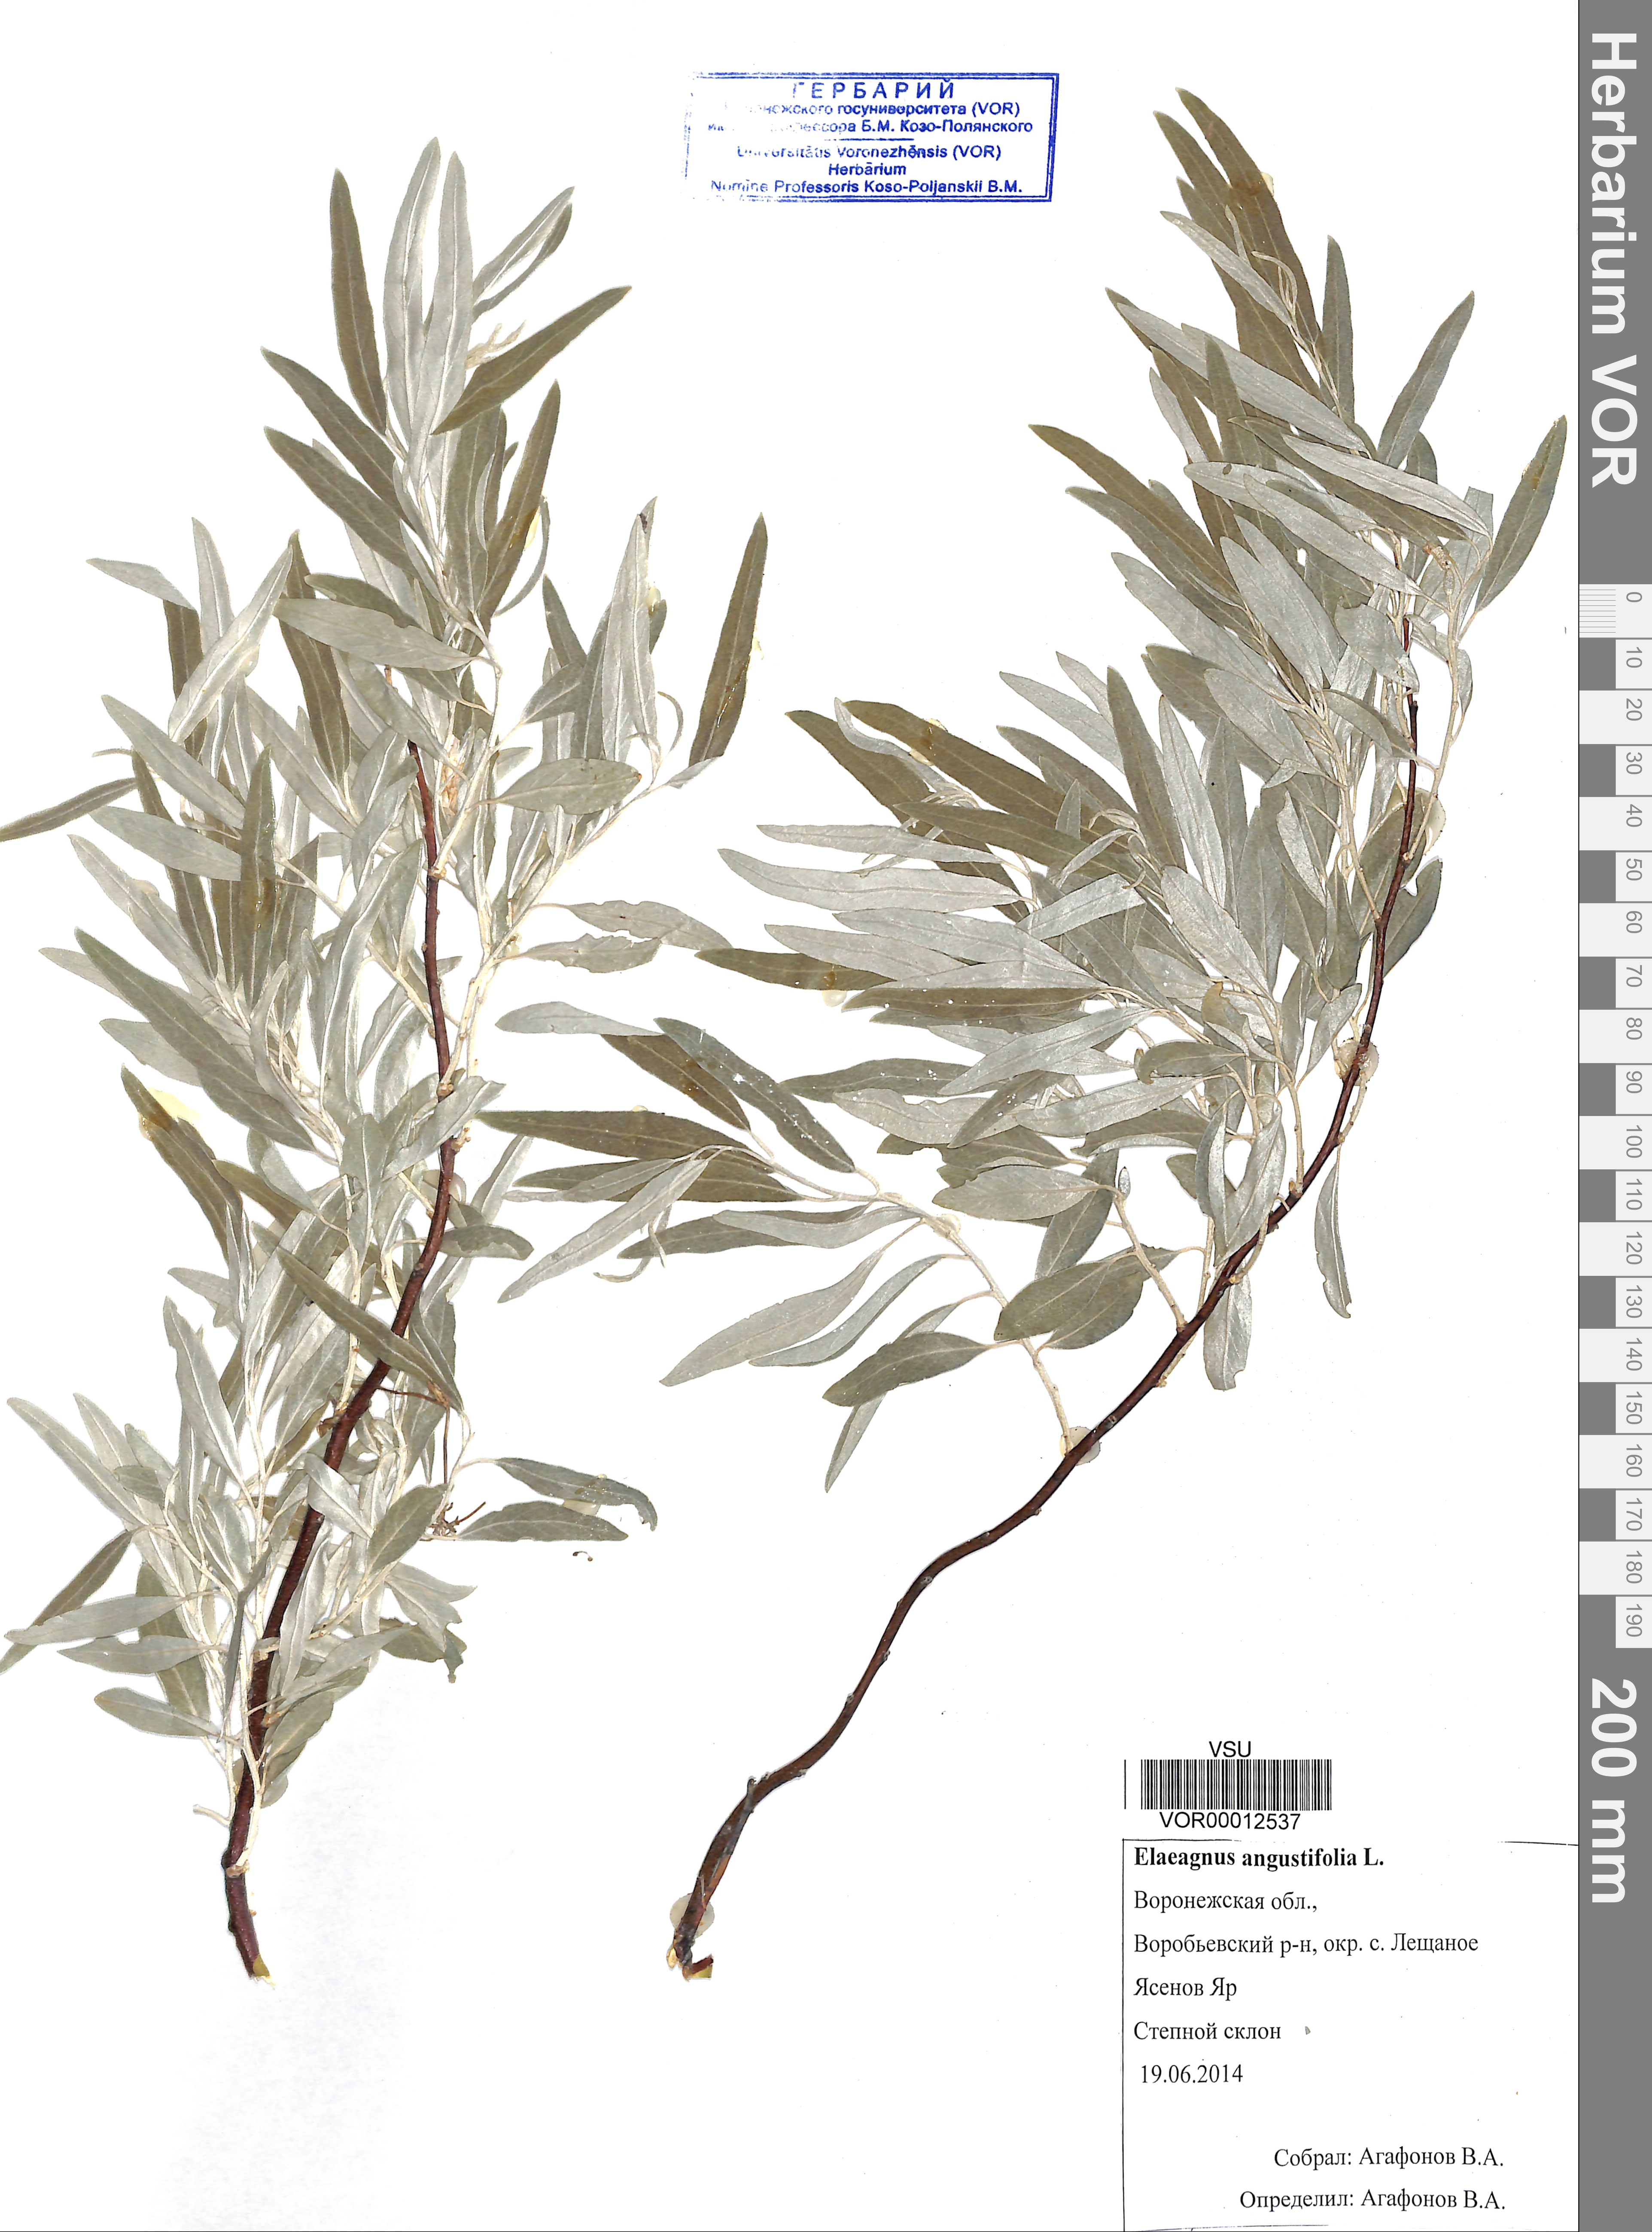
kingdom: Plantae
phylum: Tracheophyta
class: Magnoliopsida
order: Rosales
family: Elaeagnaceae
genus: Elaeagnus
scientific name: Elaeagnus angustifolia
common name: Russian olive
